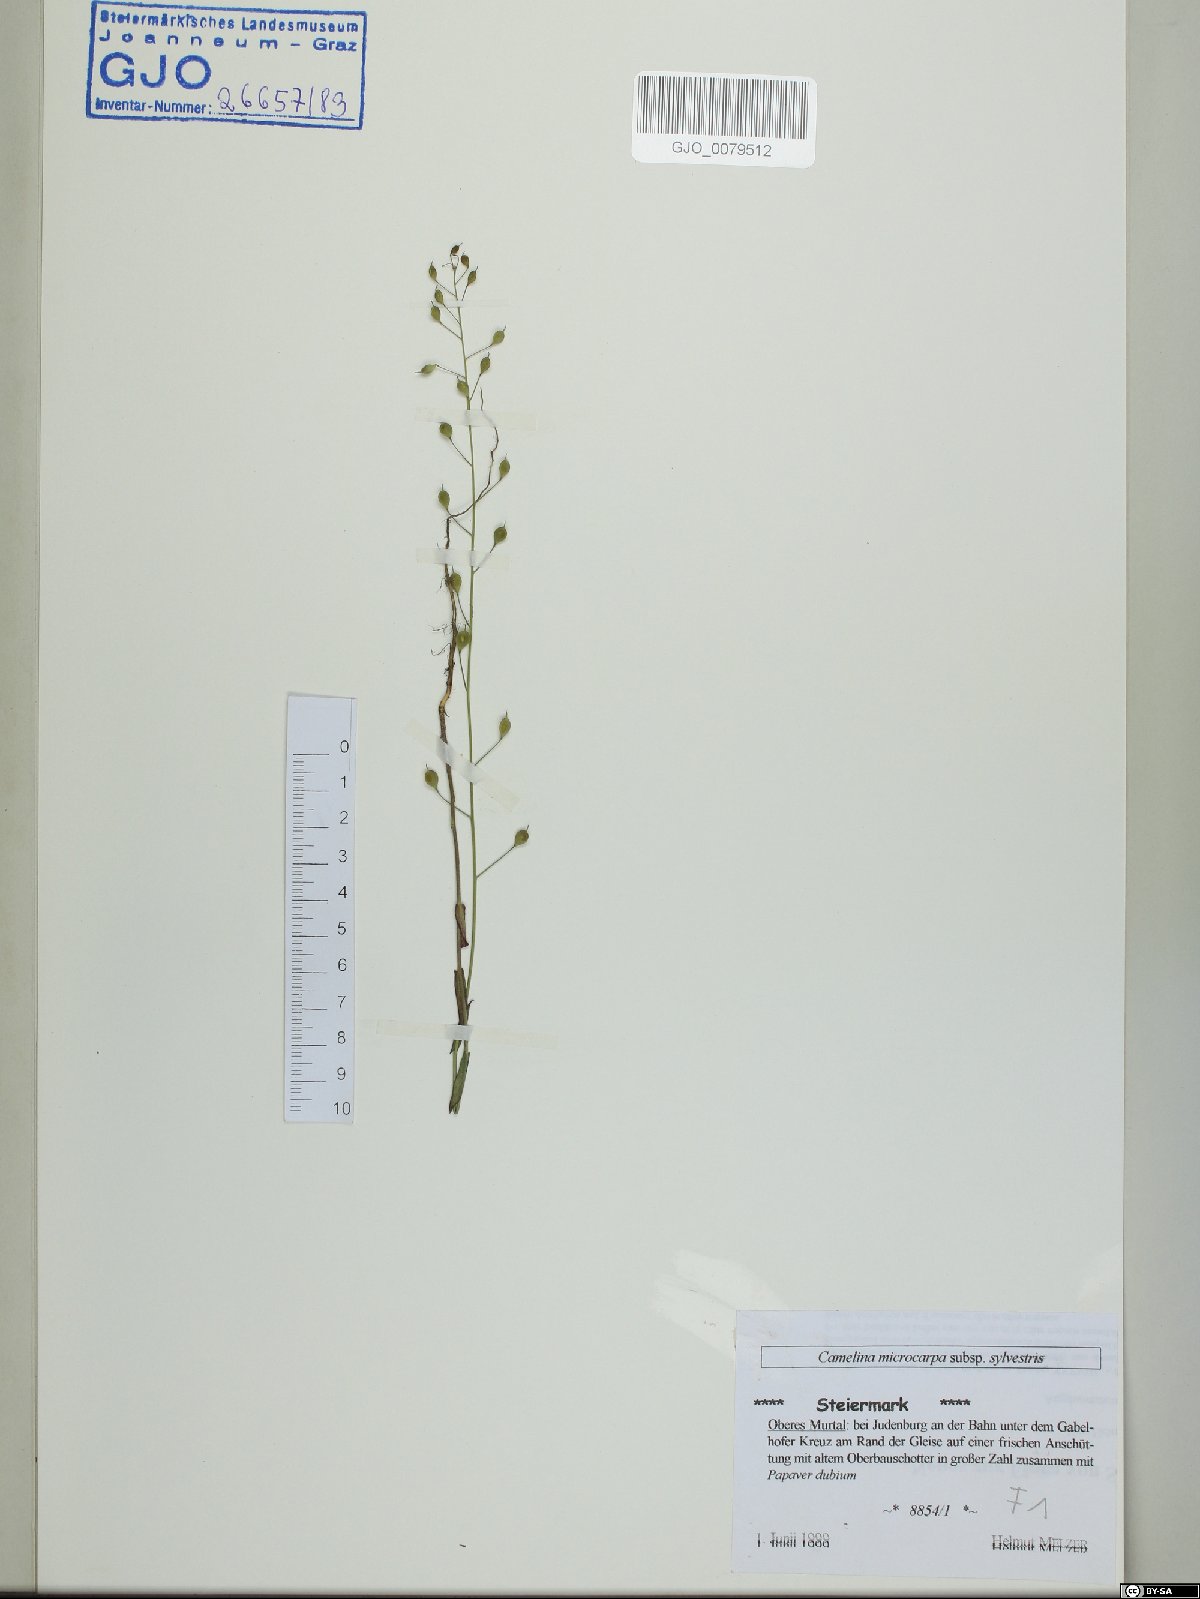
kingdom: Plantae
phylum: Tracheophyta
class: Magnoliopsida
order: Brassicales
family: Brassicaceae
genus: Camelina
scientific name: Camelina microcarpa
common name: Lesser gold-of-pleasure
